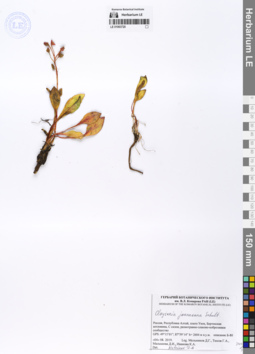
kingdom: Plantae
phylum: Tracheophyta
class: Magnoliopsida
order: Caryophyllales
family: Montiaceae
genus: Claytonia
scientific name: Claytonia joanneana
